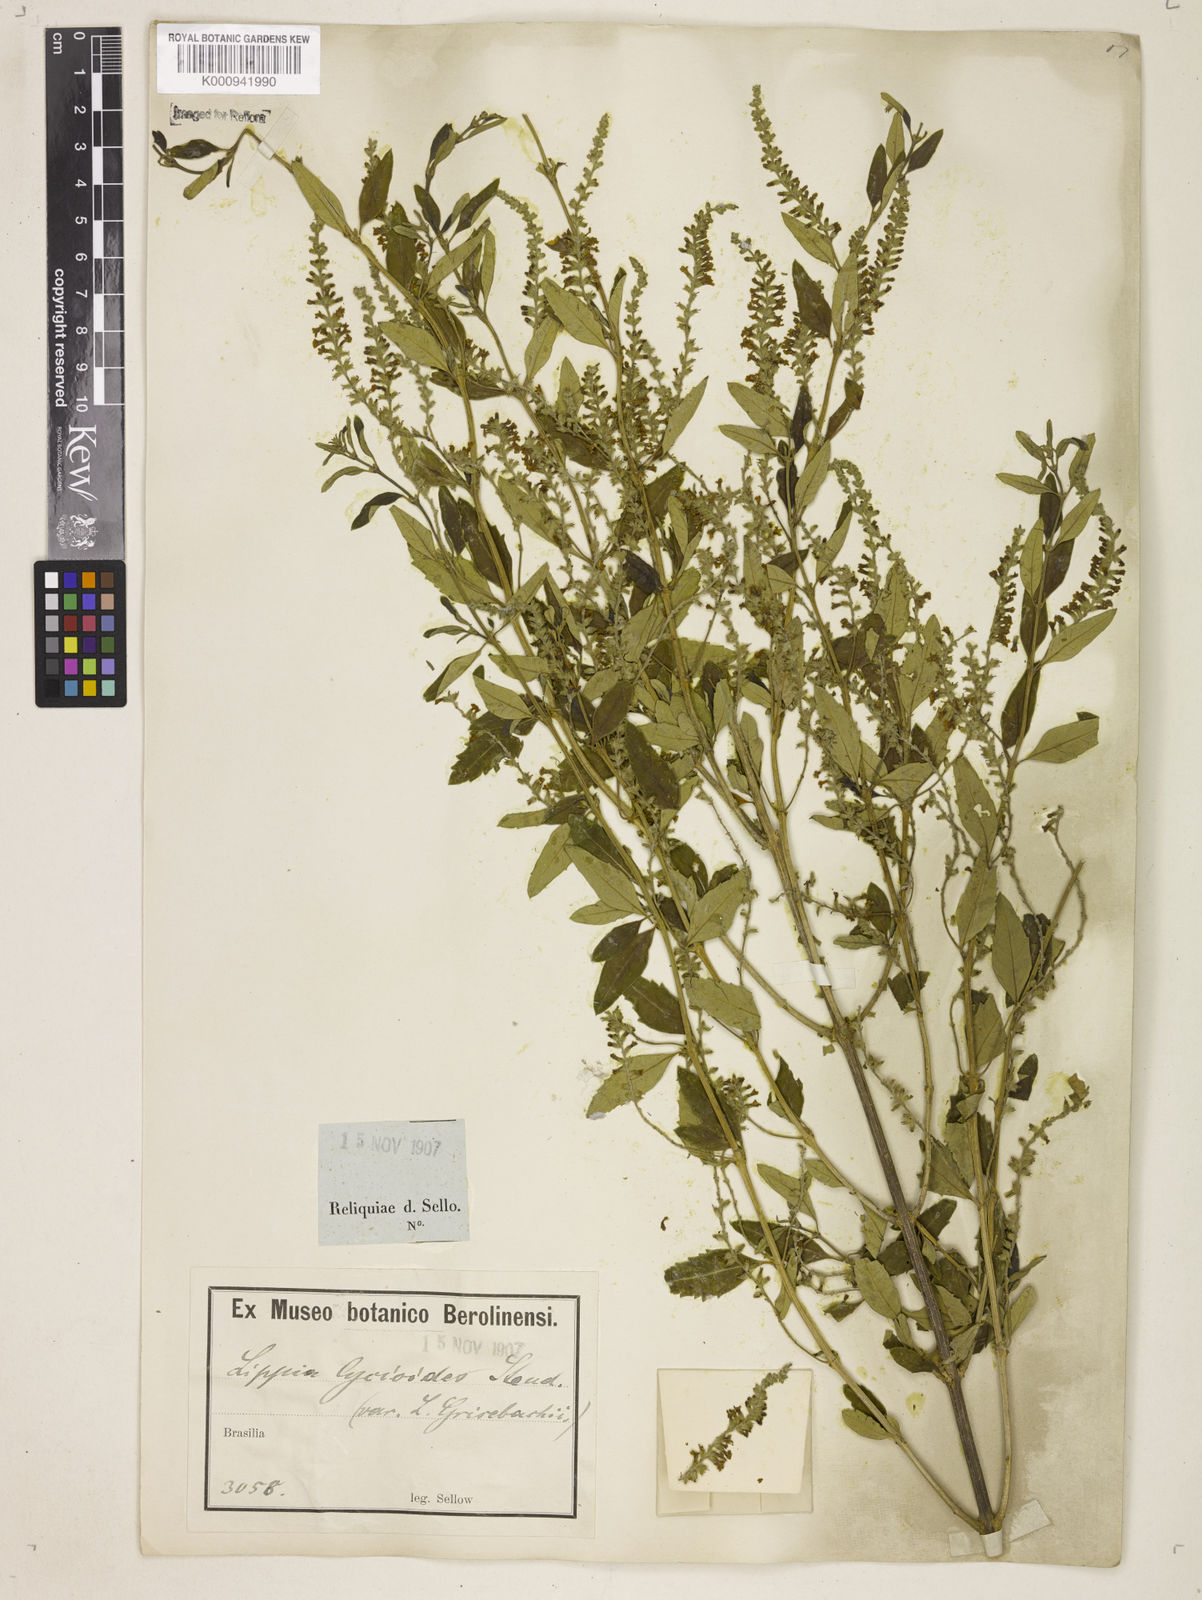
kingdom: Plantae
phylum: Tracheophyta
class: Magnoliopsida
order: Lamiales
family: Verbenaceae
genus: Aloysia
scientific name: Aloysia
